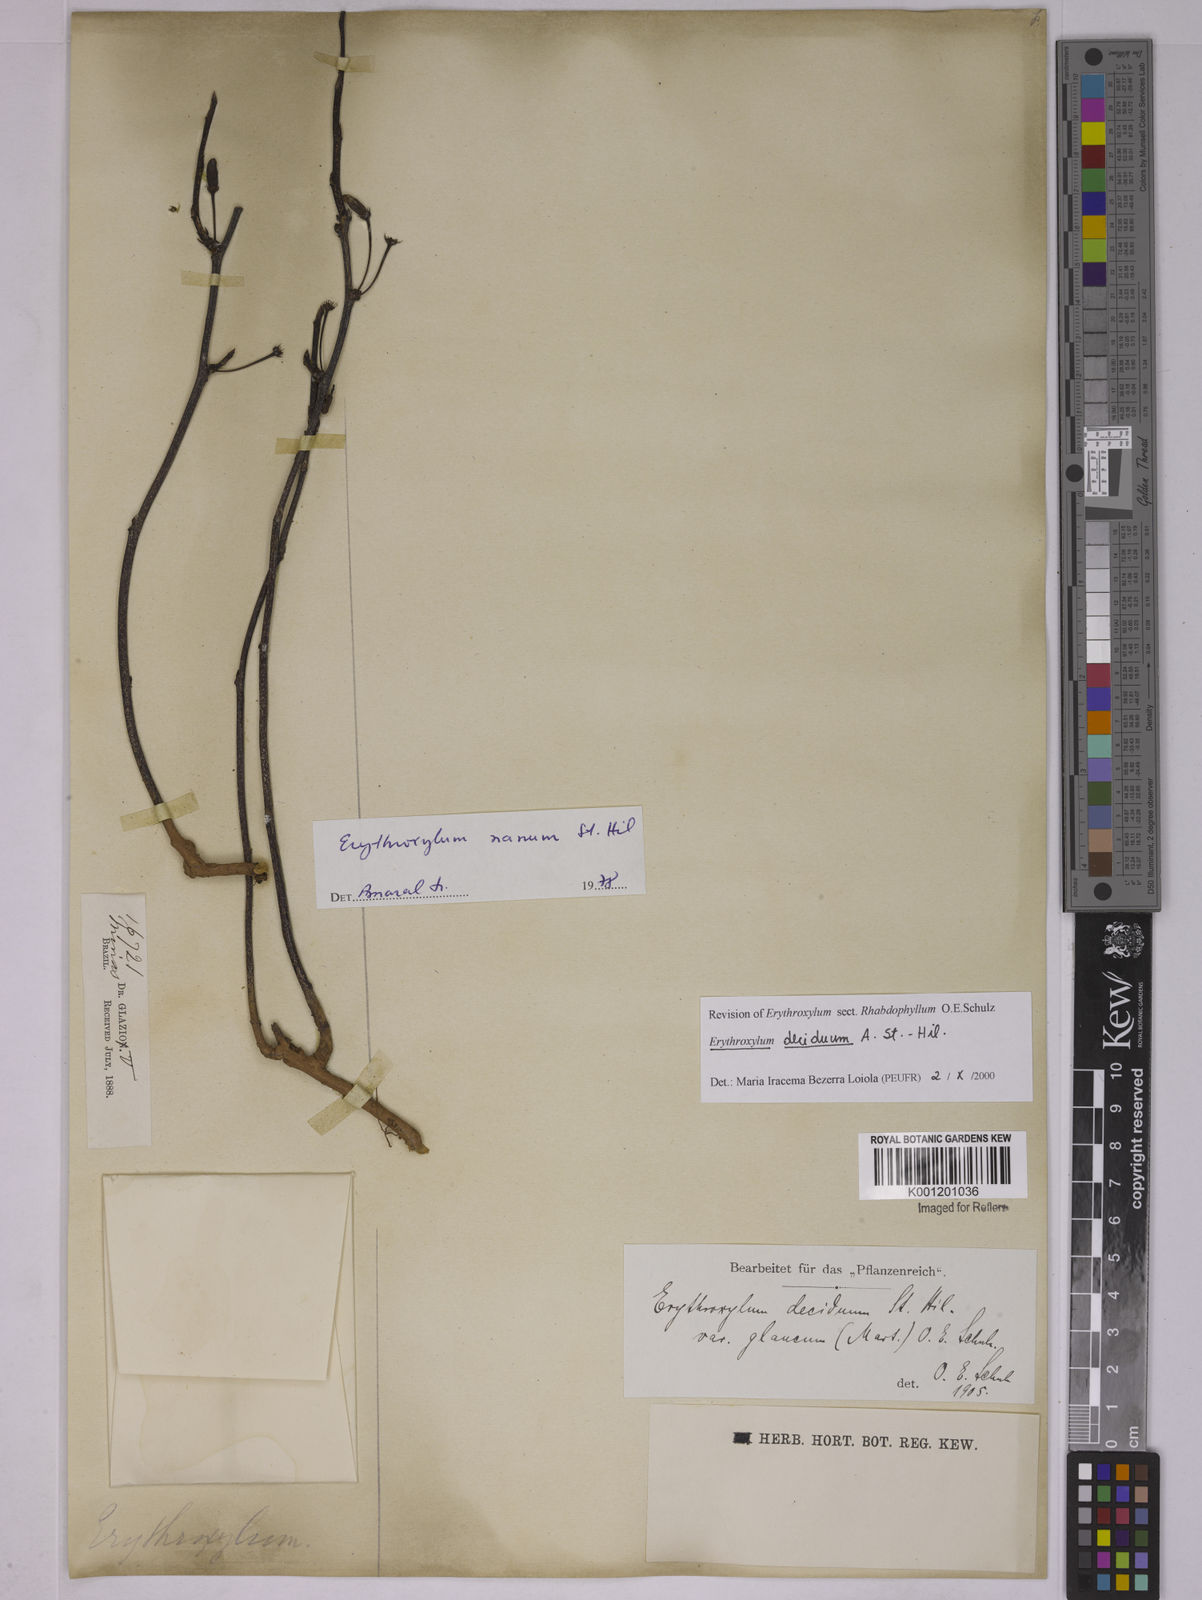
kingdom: Plantae
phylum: Tracheophyta
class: Magnoliopsida
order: Malpighiales
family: Erythroxylaceae
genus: Erythroxylum
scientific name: Erythroxylum deciduum
